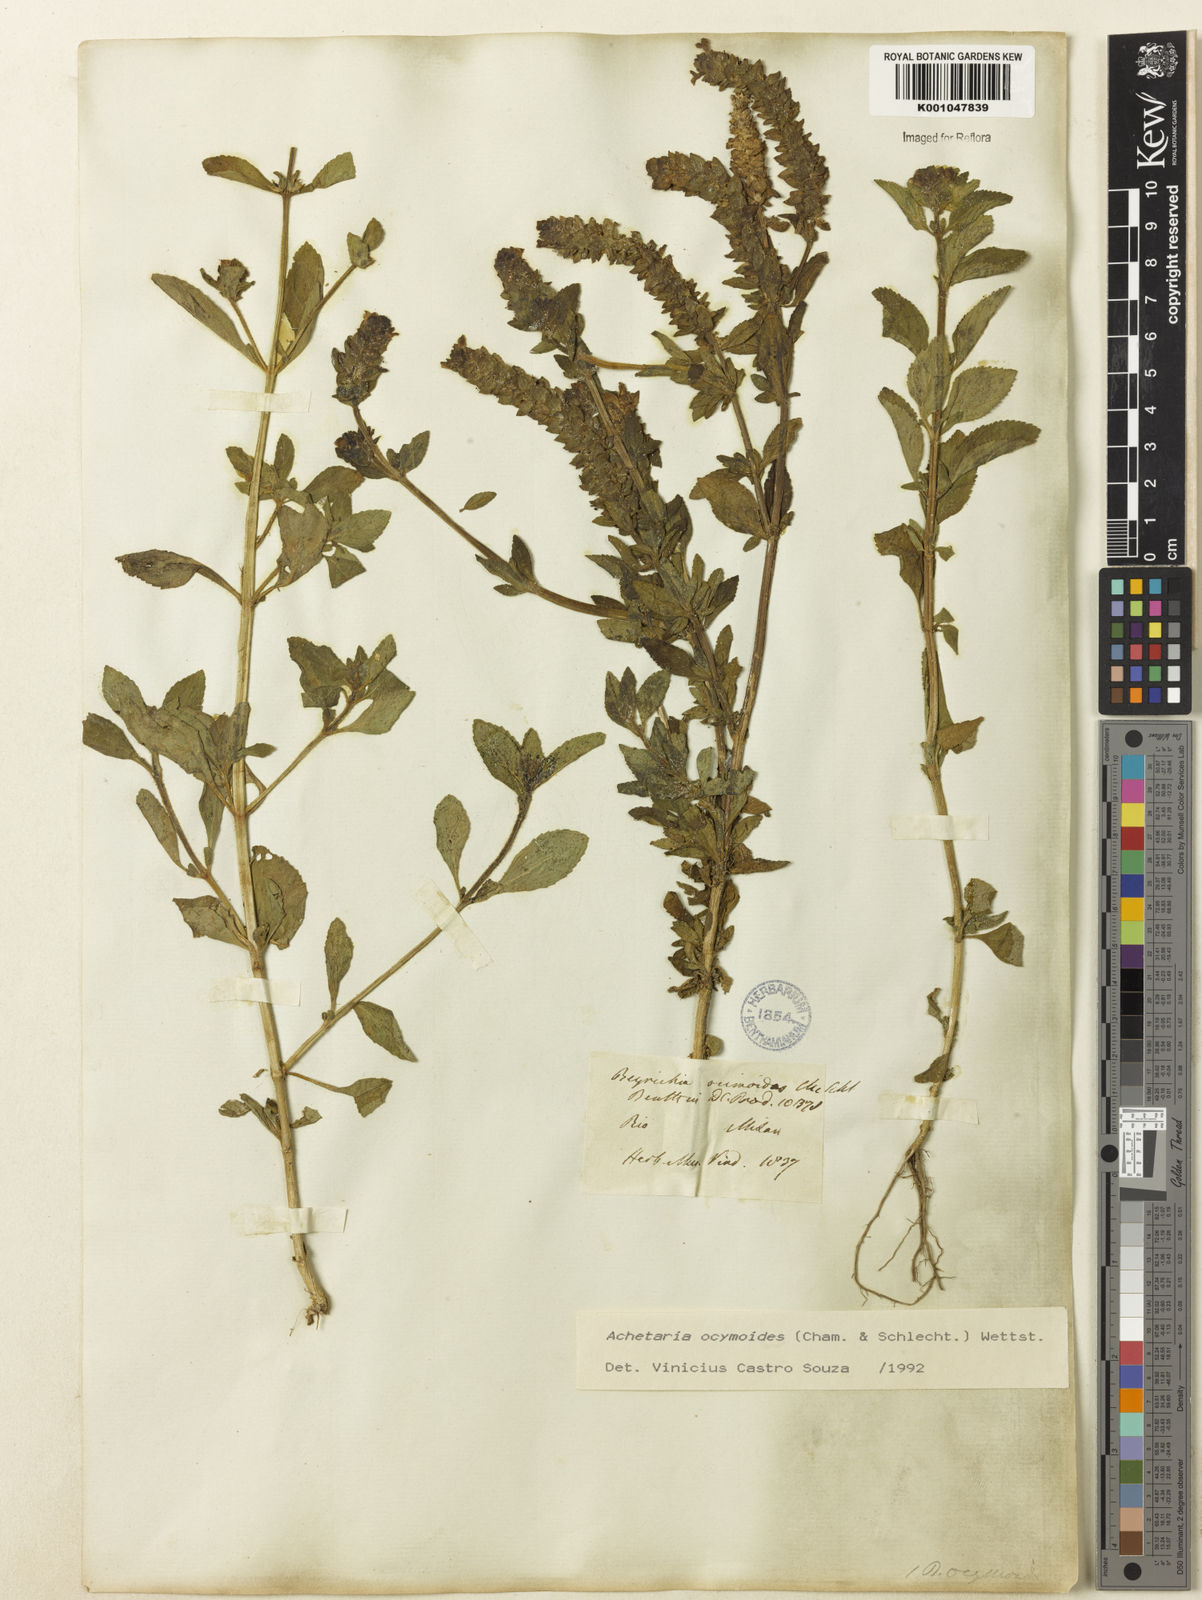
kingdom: Plantae
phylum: Tracheophyta
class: Magnoliopsida
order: Lamiales
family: Plantaginaceae
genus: Matourea
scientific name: Matourea ocymoides
